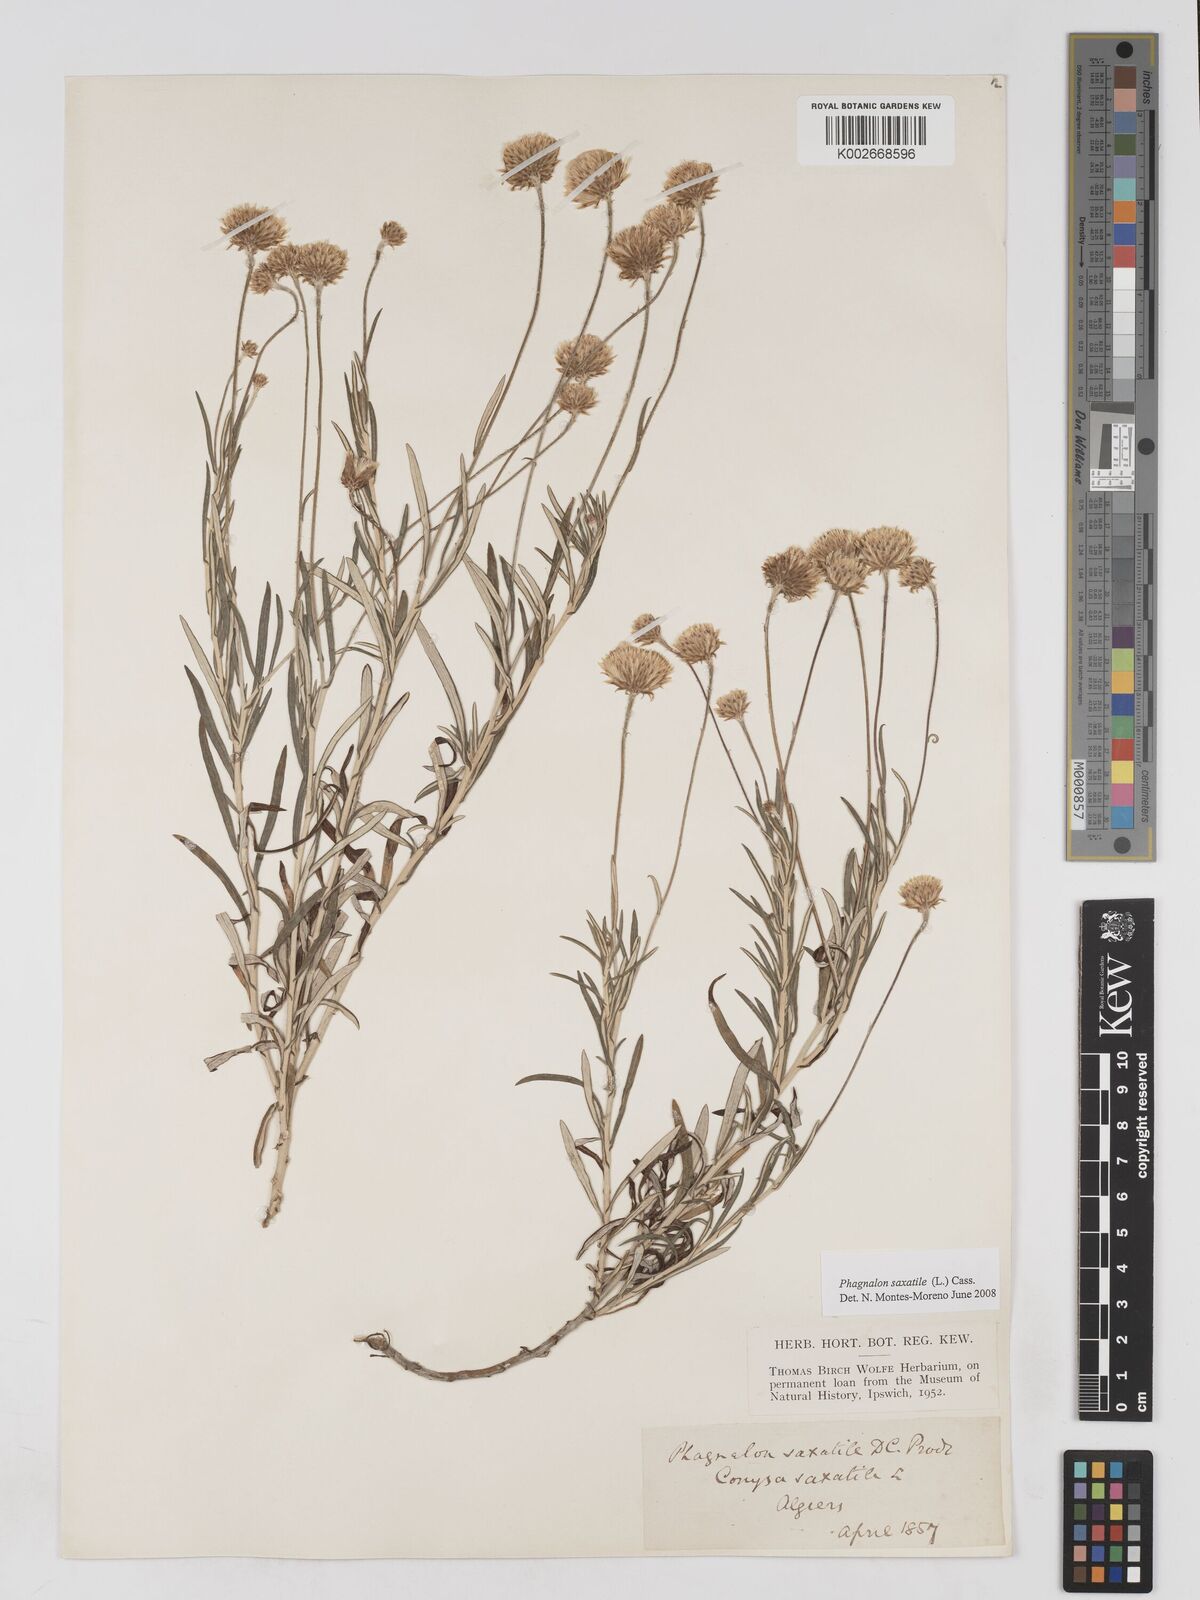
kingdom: Plantae
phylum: Tracheophyta
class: Magnoliopsida
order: Asterales
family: Asteraceae
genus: Phagnalon
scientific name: Phagnalon saxatile
